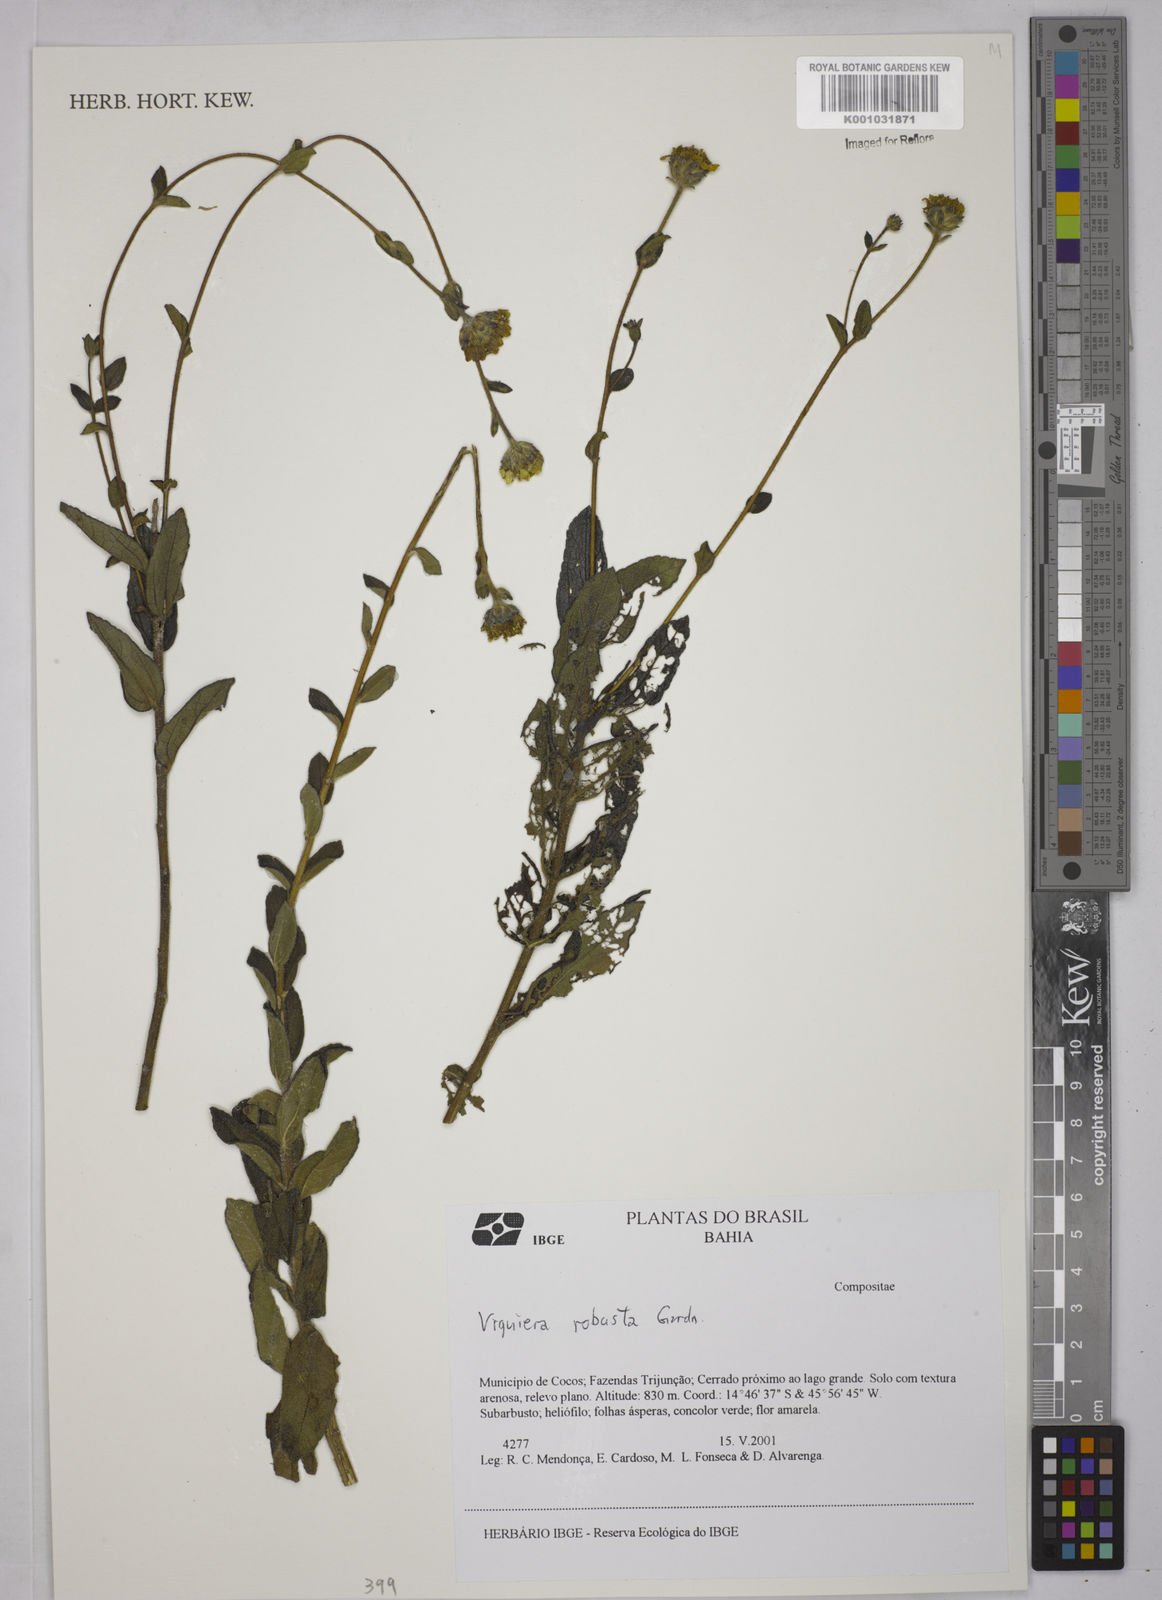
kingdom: Plantae
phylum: Tracheophyta
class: Magnoliopsida
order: Asterales
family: Asteraceae
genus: Aldama
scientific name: Aldama robusta
